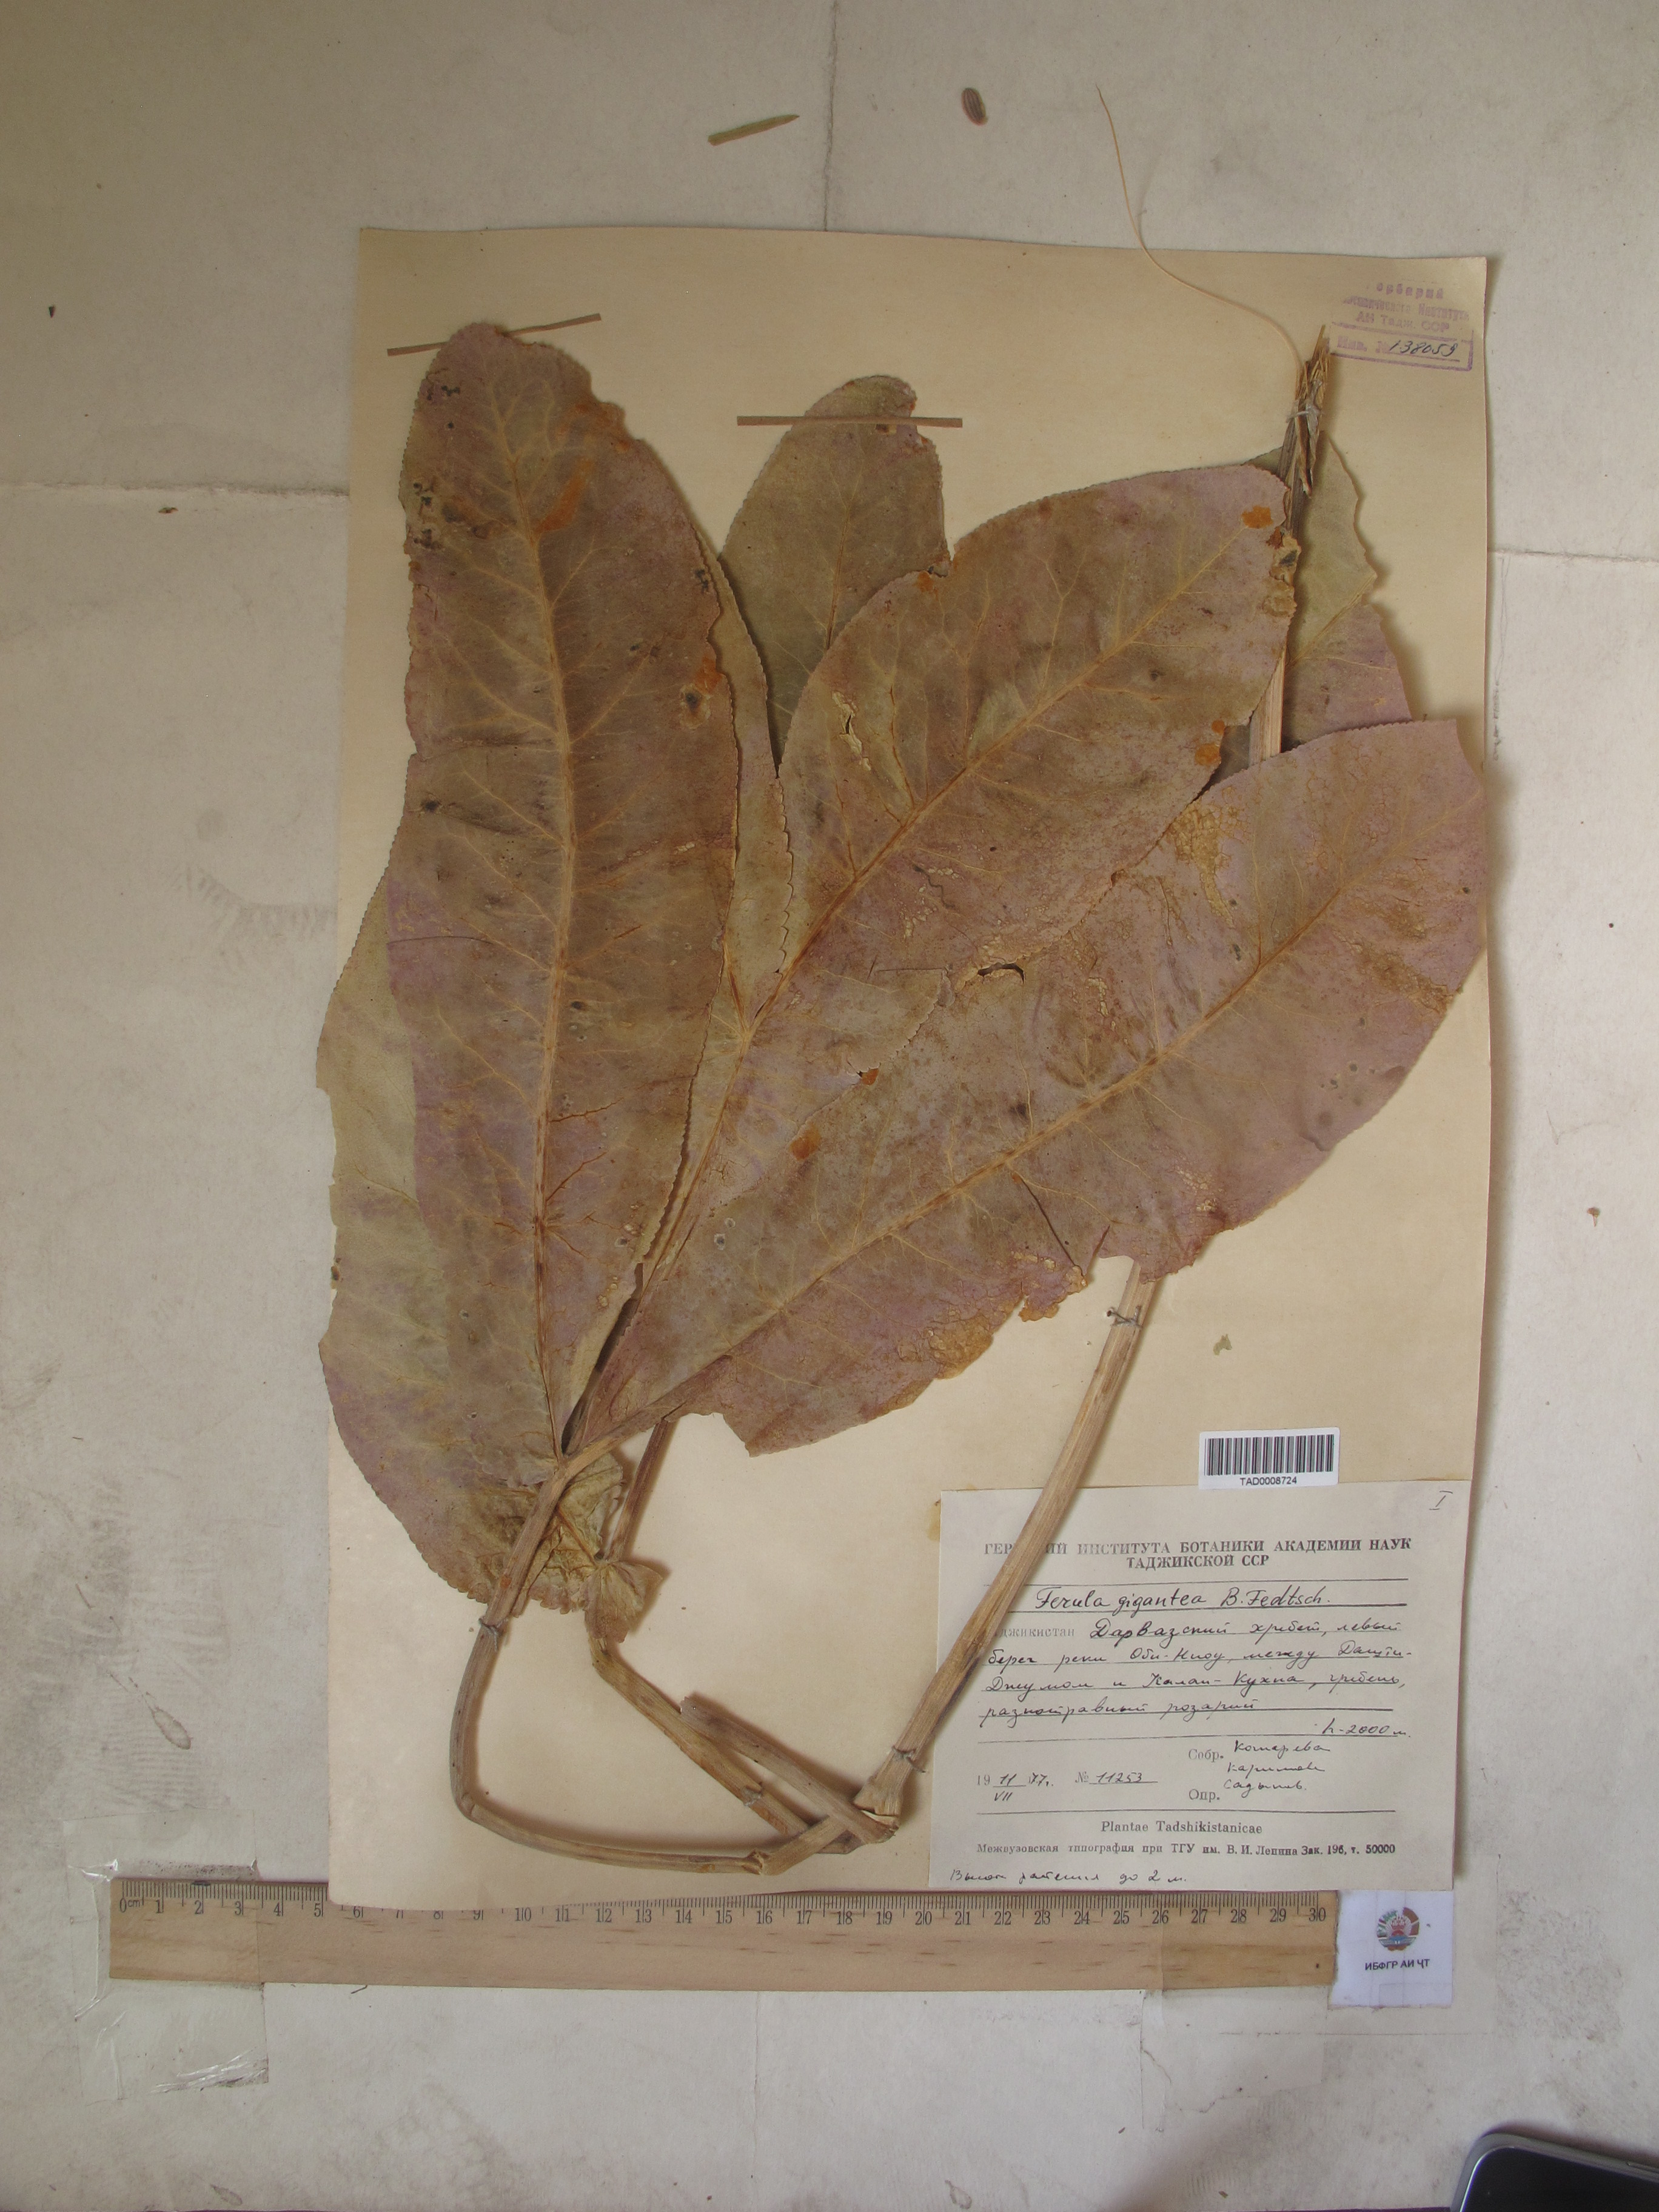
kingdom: Plantae
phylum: Tracheophyta
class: Magnoliopsida
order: Apiales
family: Apiaceae
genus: Ferula
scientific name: Ferula gigantea
